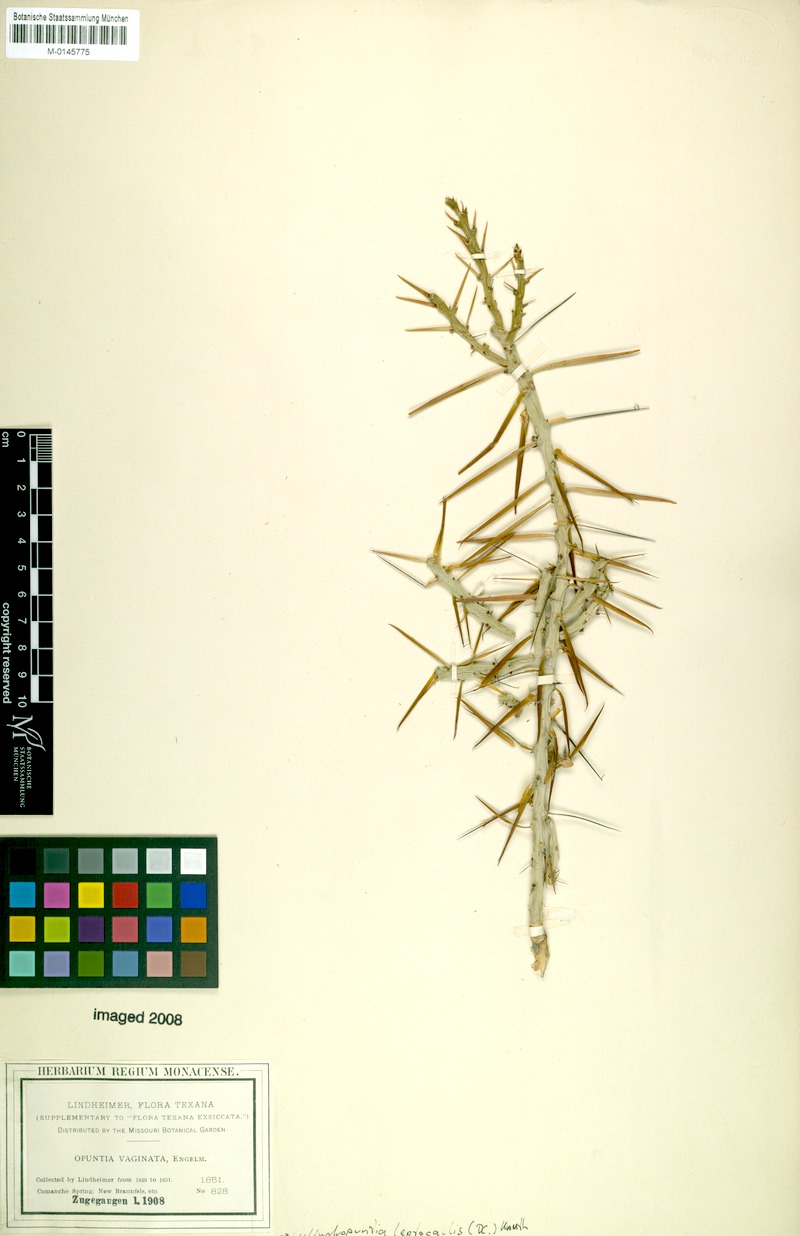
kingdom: Plantae
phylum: Tracheophyta
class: Magnoliopsida
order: Caryophyllales
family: Cactaceae
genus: Cylindropuntia
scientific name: Cylindropuntia leptocaulis
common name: Christmas cactus
